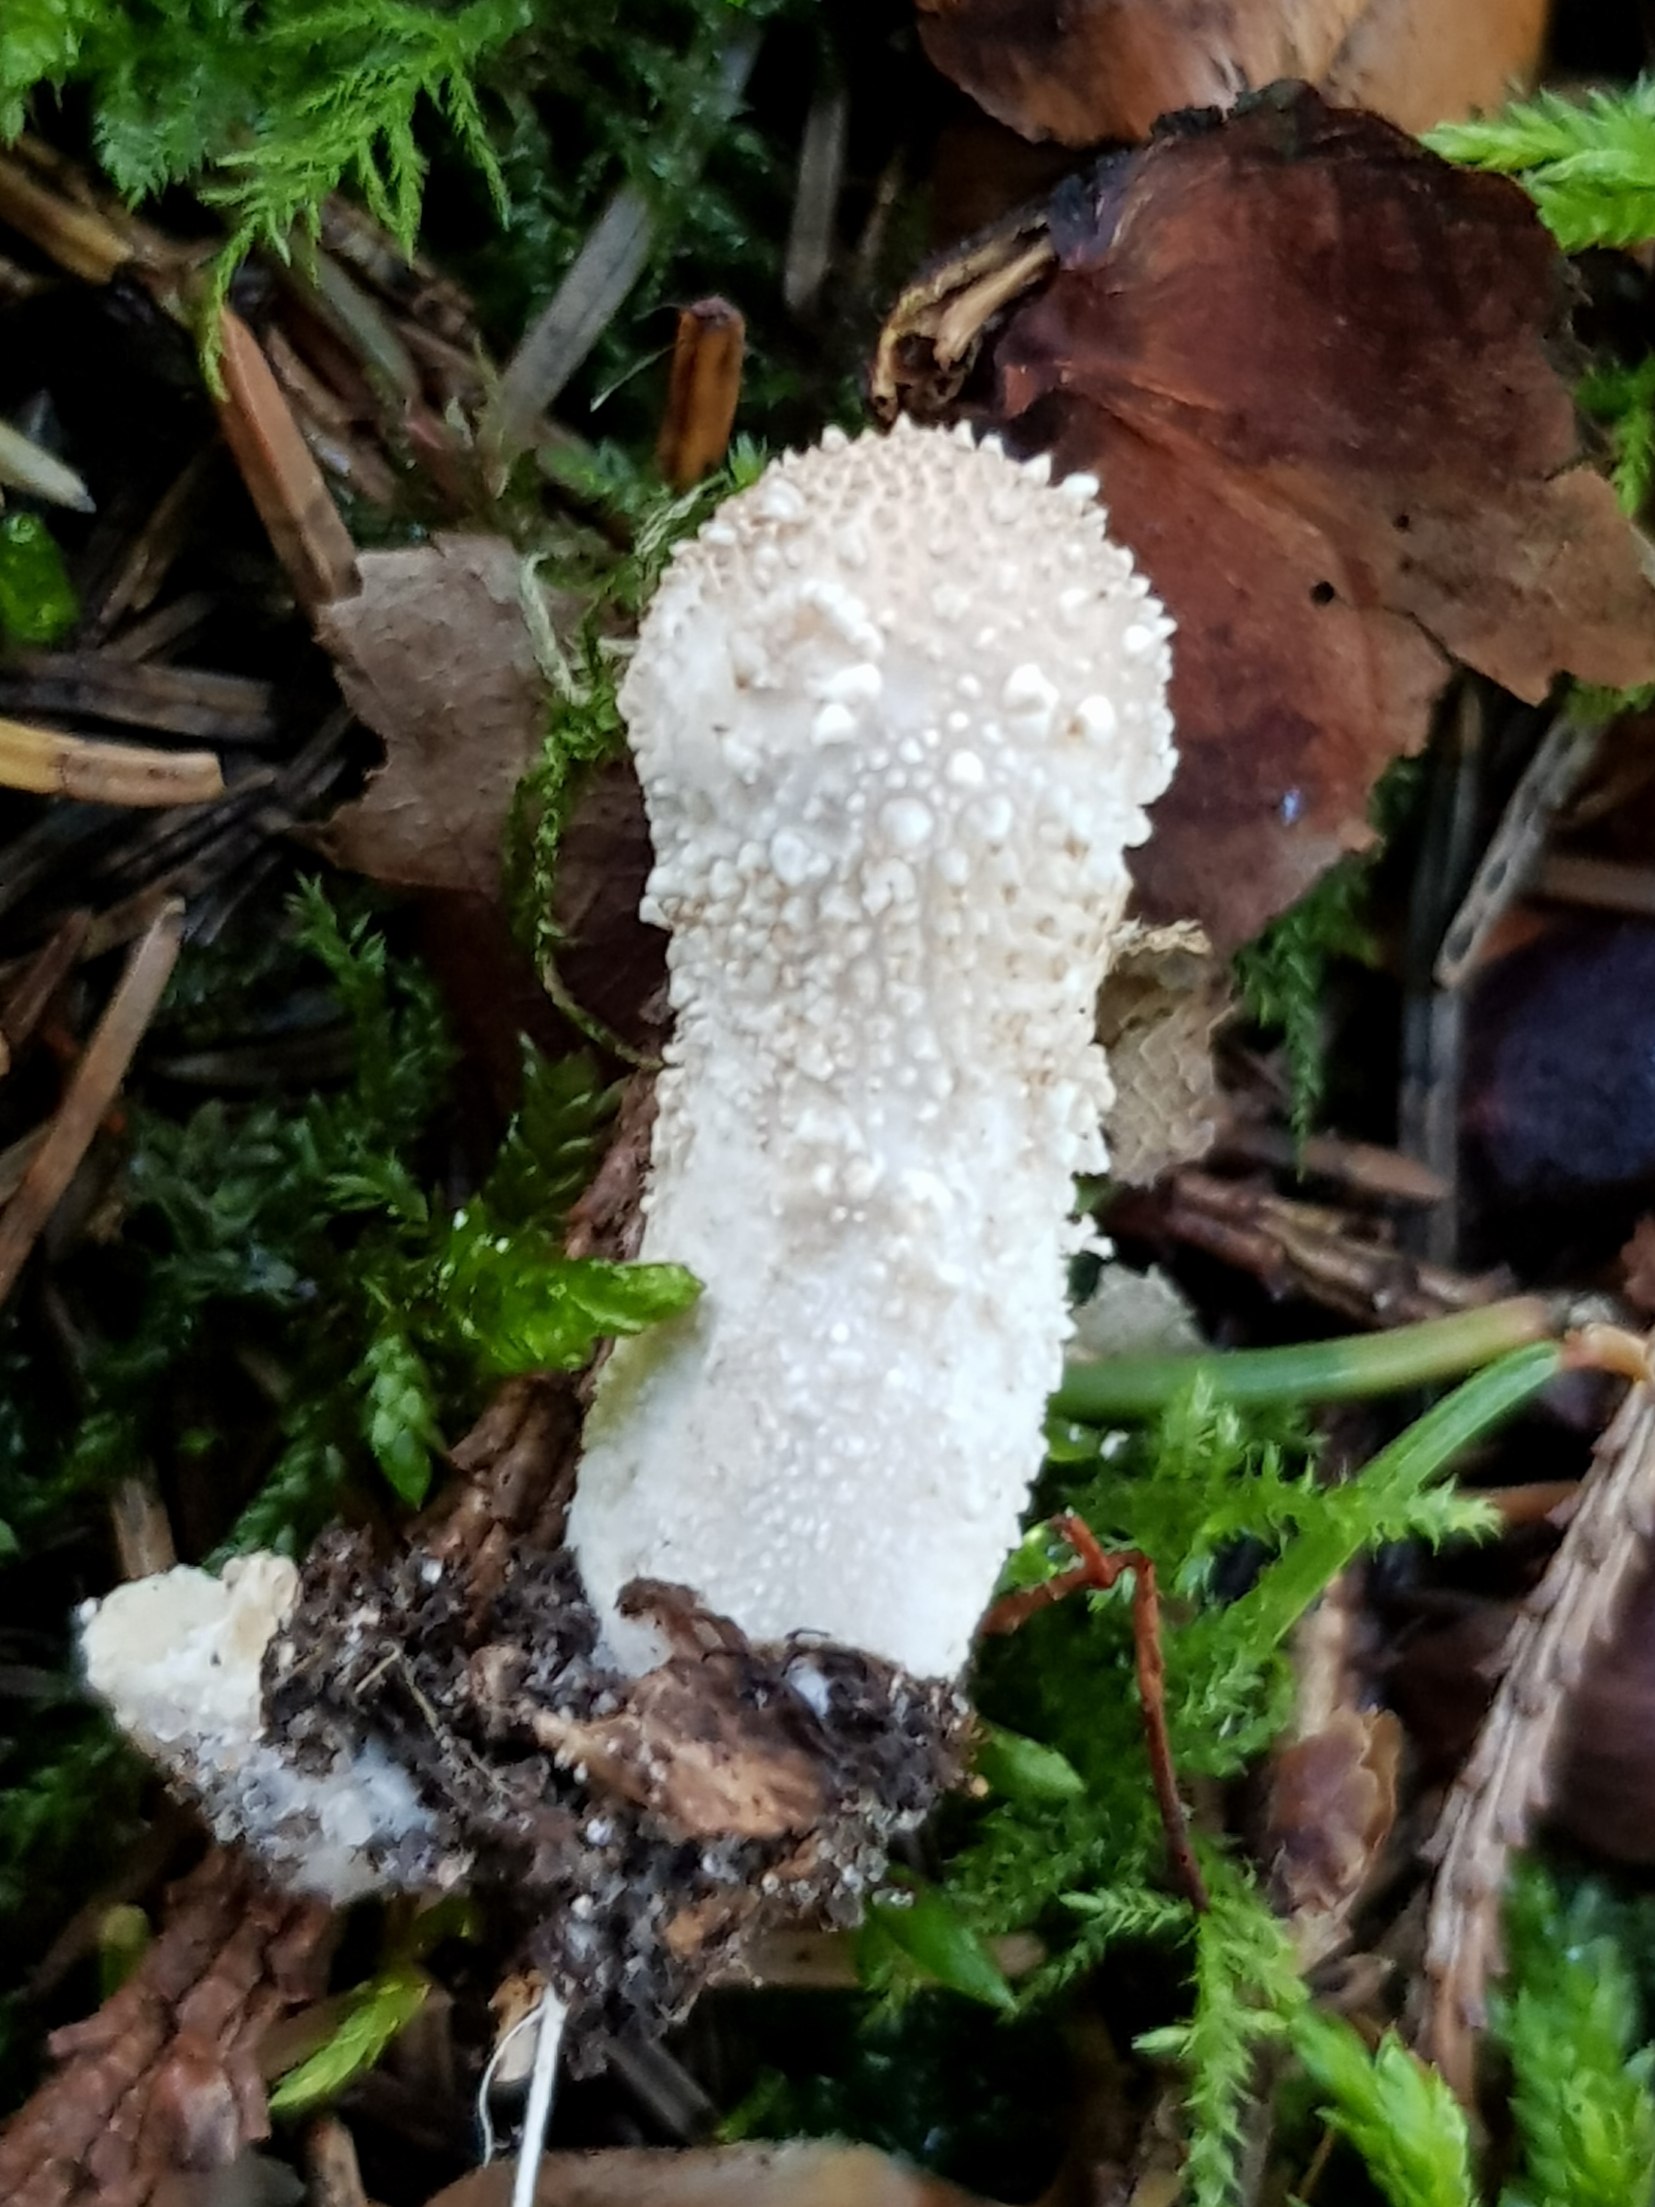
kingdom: Fungi
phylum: Basidiomycota
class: Agaricomycetes
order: Agaricales
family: Lycoperdaceae
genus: Lycoperdon
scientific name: Lycoperdon perlatum
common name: krystal-støvbold
